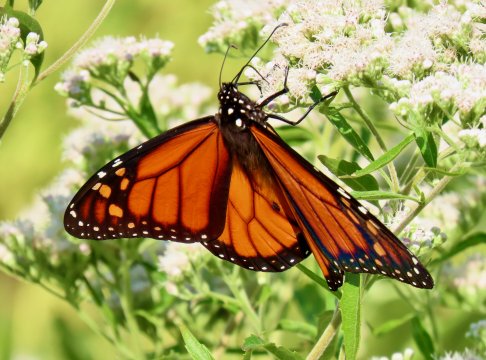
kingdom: Animalia
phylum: Arthropoda
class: Insecta
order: Lepidoptera
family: Nymphalidae
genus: Danaus
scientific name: Danaus plexippus
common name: Monarch
